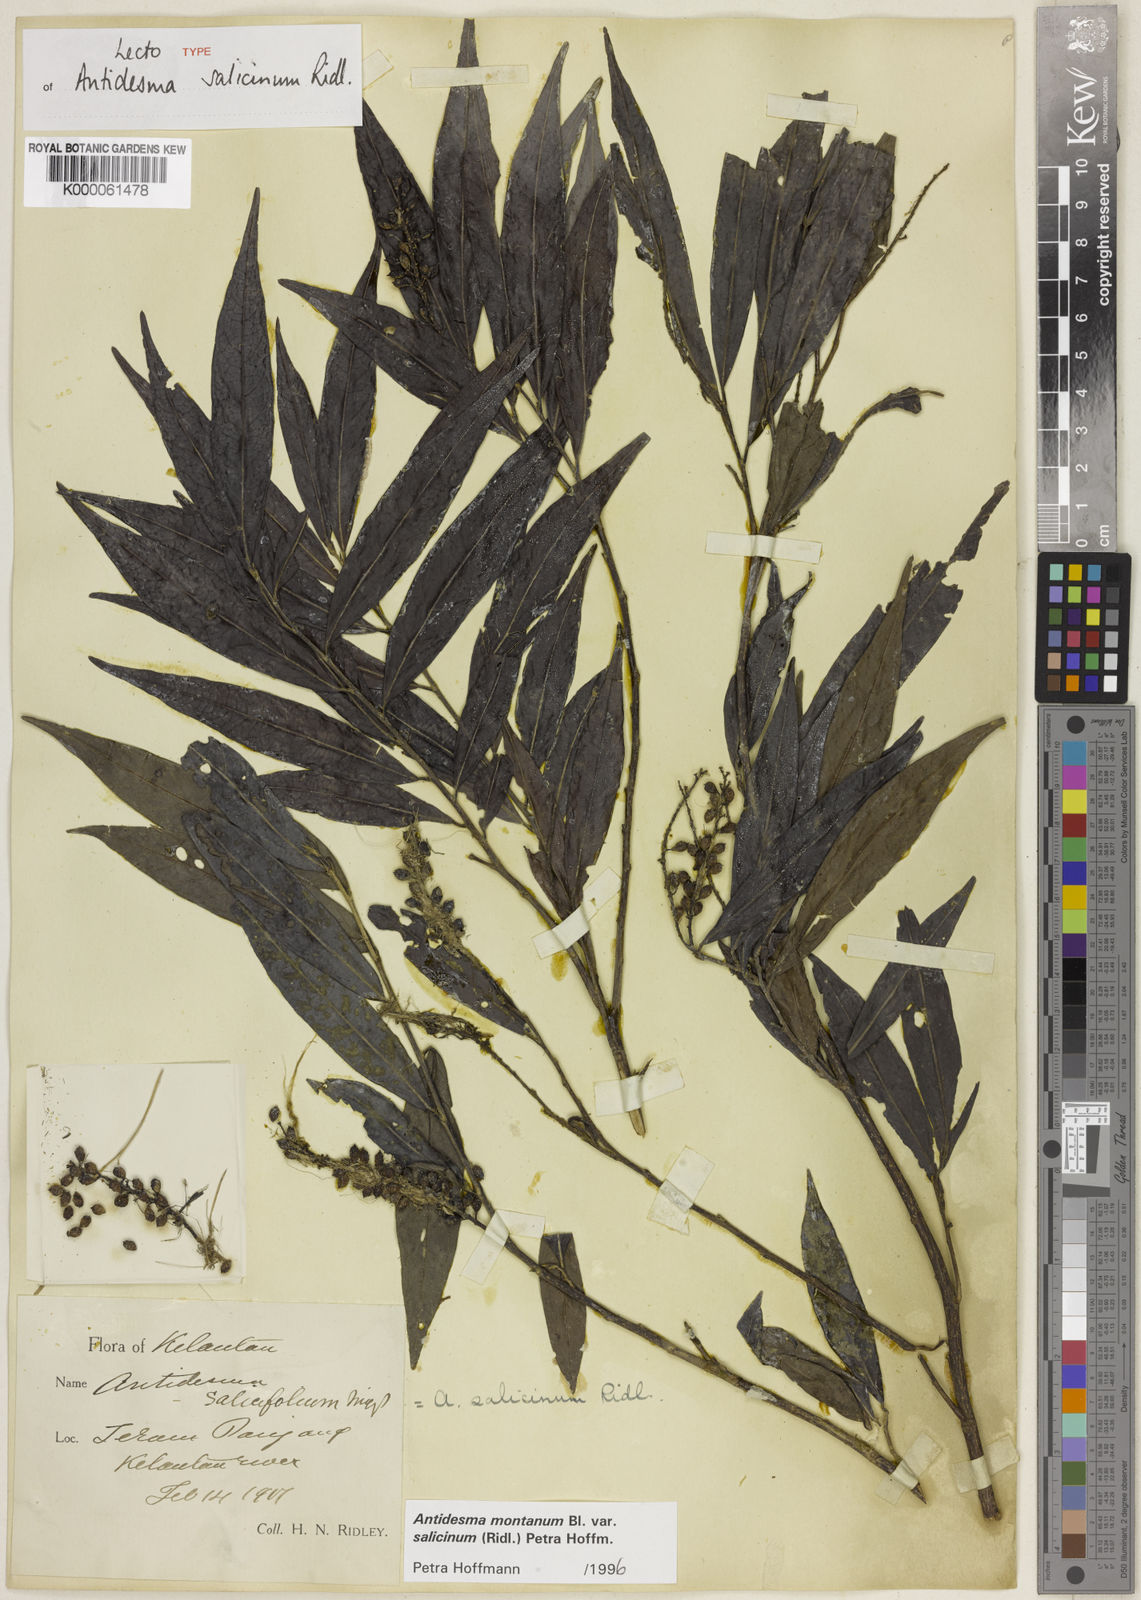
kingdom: Plantae
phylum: Tracheophyta
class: Magnoliopsida
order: Malpighiales
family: Phyllanthaceae
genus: Antidesma
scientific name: Antidesma montanum
